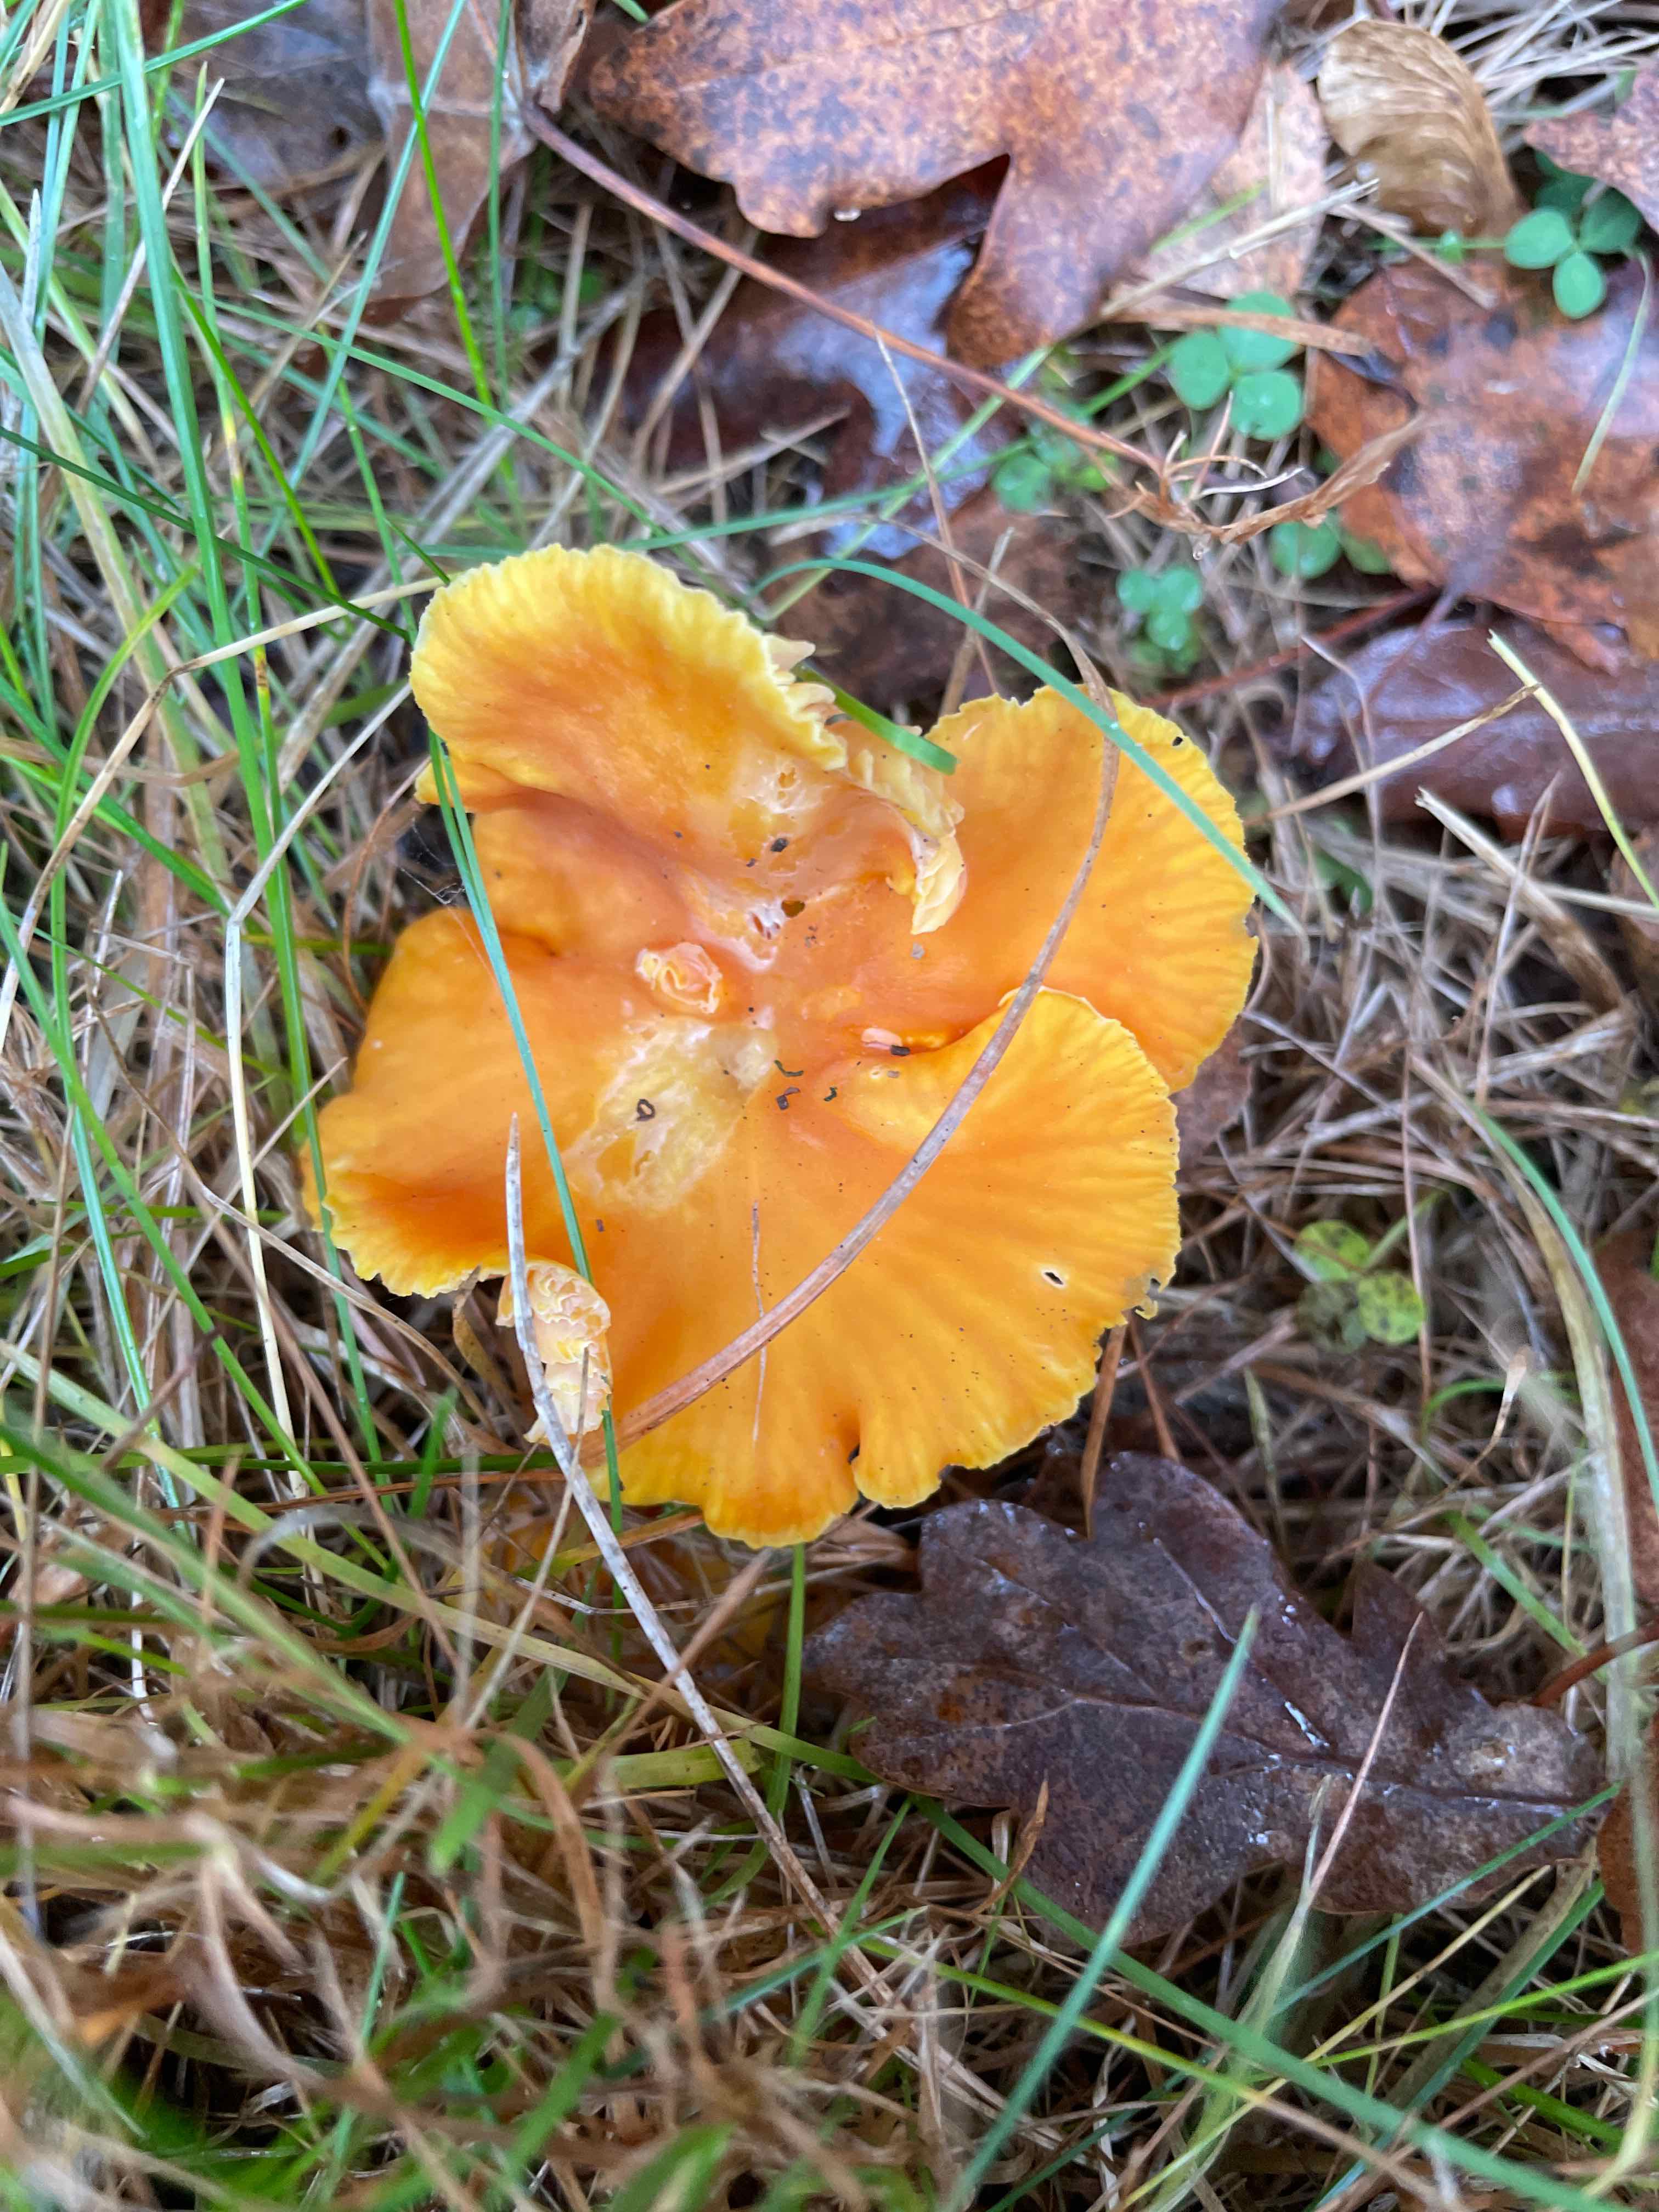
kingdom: Fungi
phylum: Basidiomycota
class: Agaricomycetes
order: Agaricales
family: Hygrophoraceae
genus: Hygrocybe
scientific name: Hygrocybe
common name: vokshat
